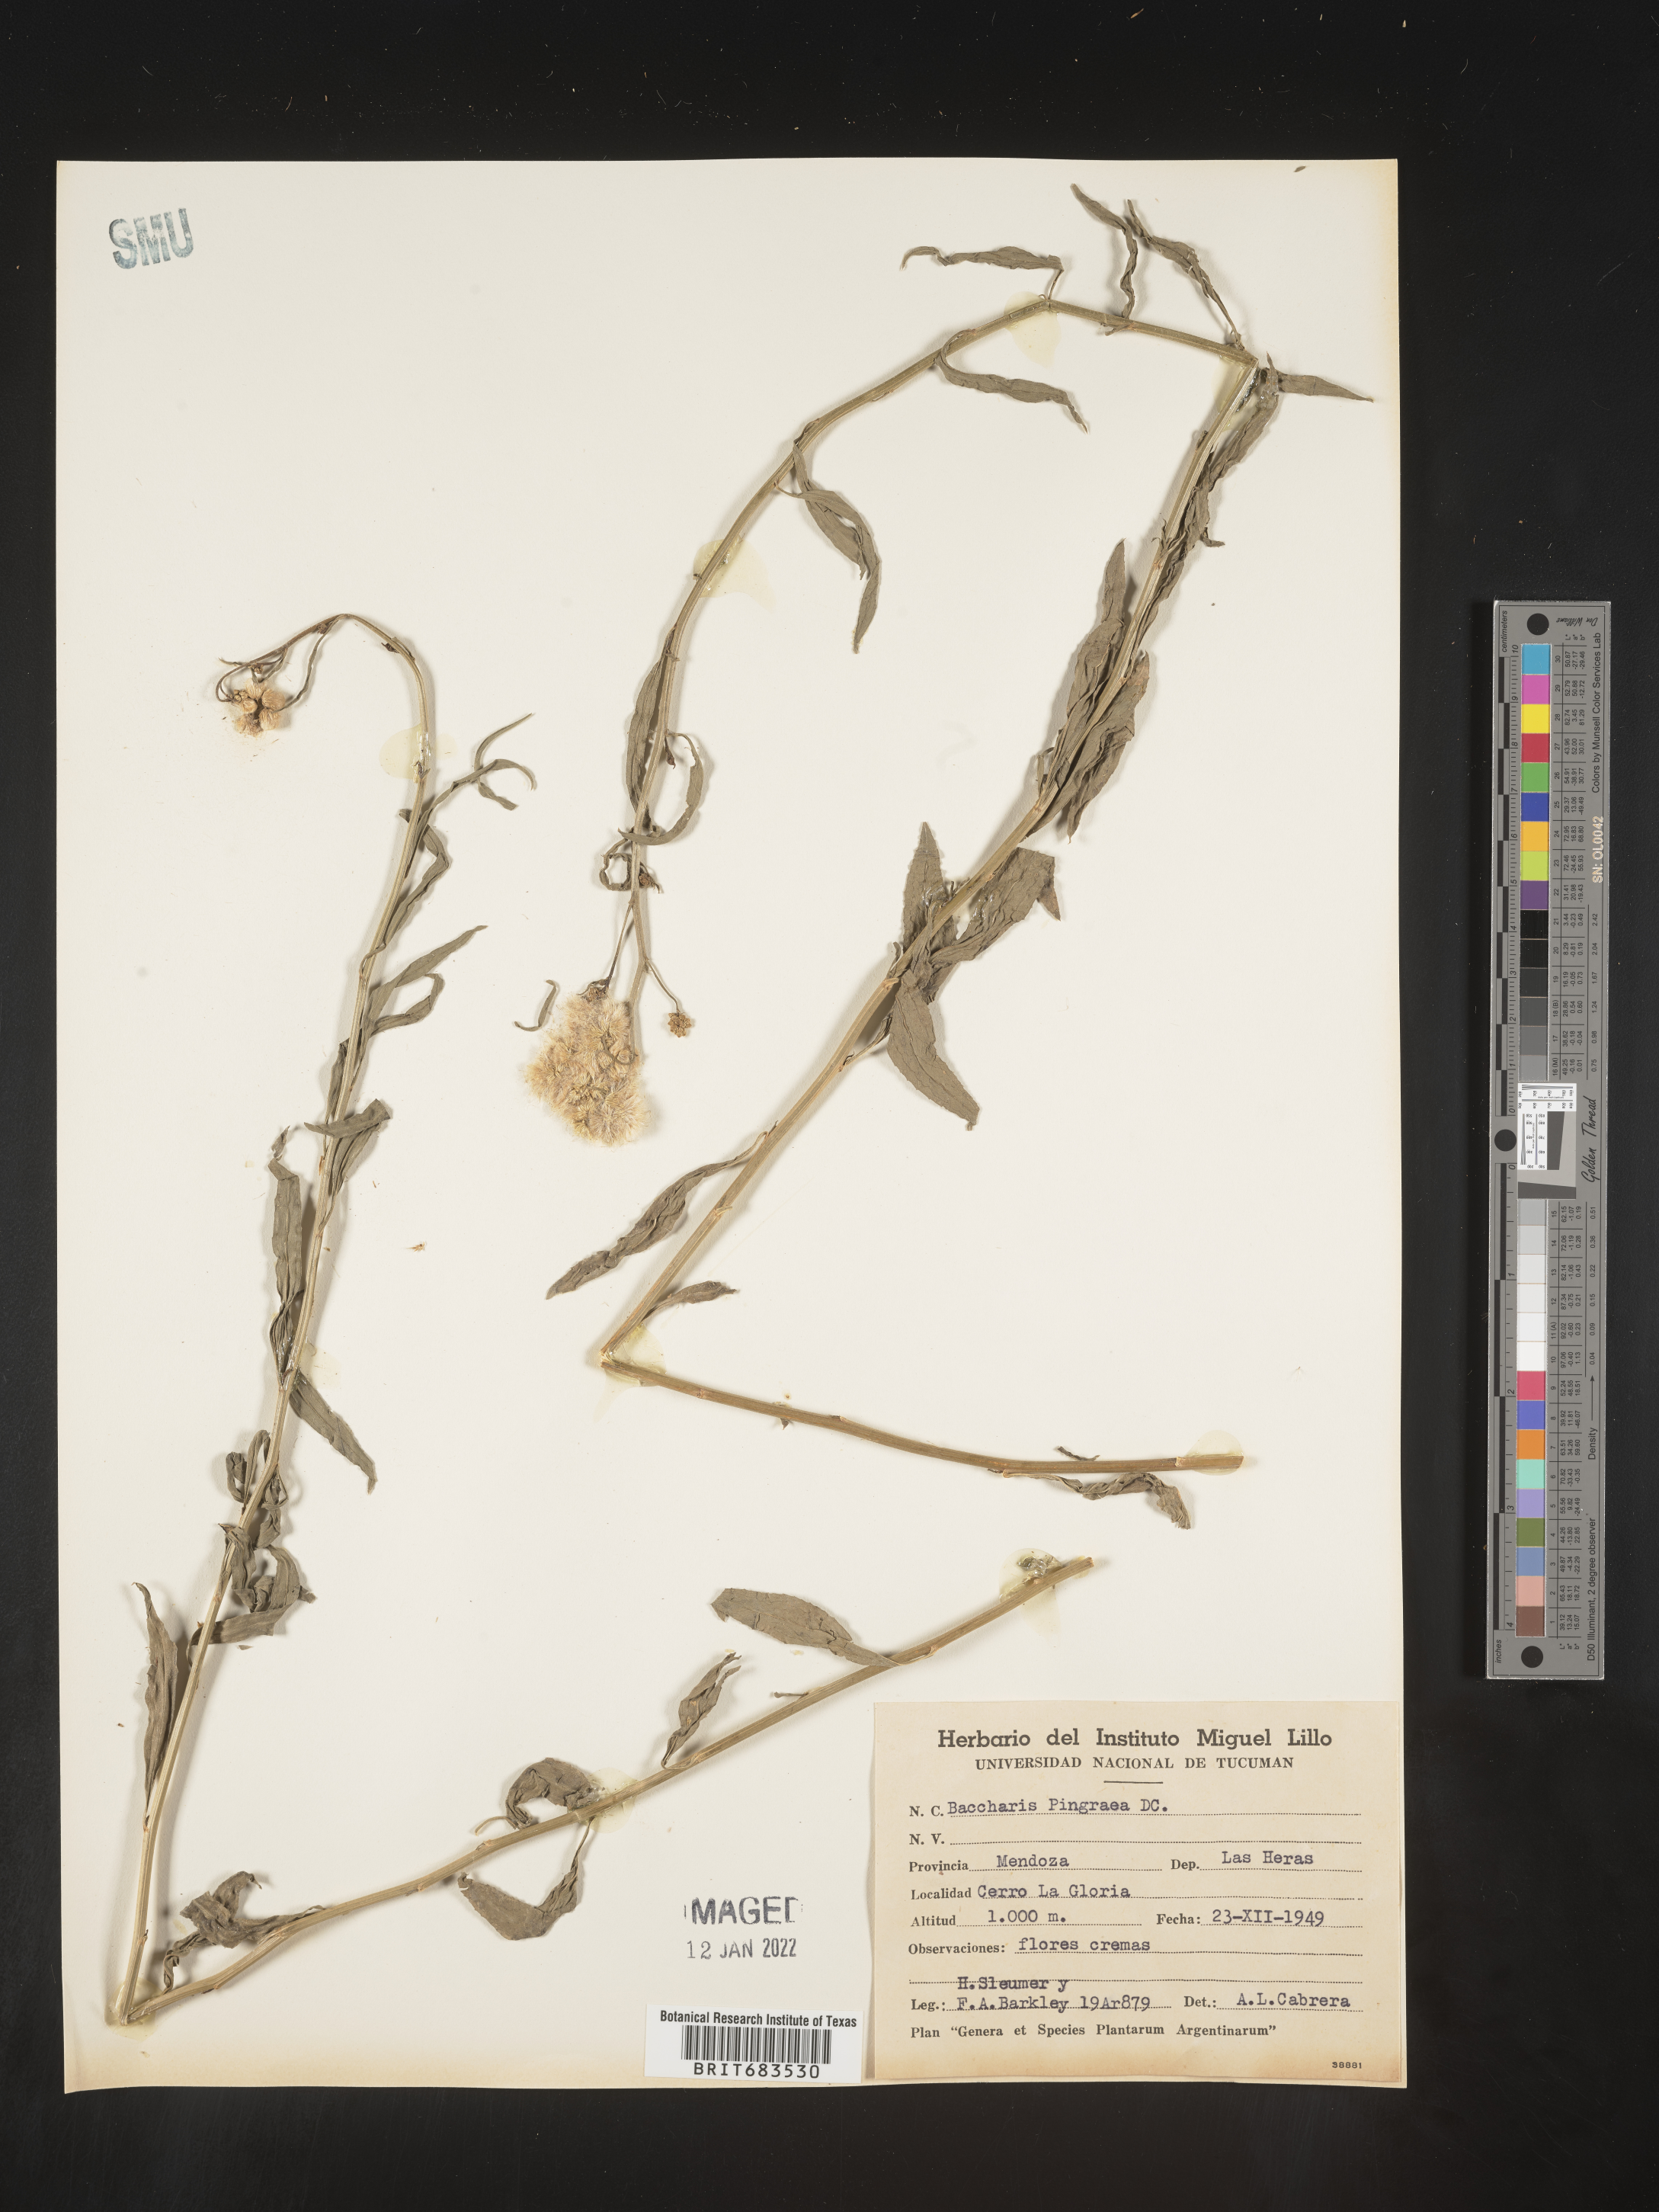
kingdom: Plantae
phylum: Tracheophyta
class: Magnoliopsida
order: Asterales
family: Asteraceae
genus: Baccharis
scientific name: Baccharis
